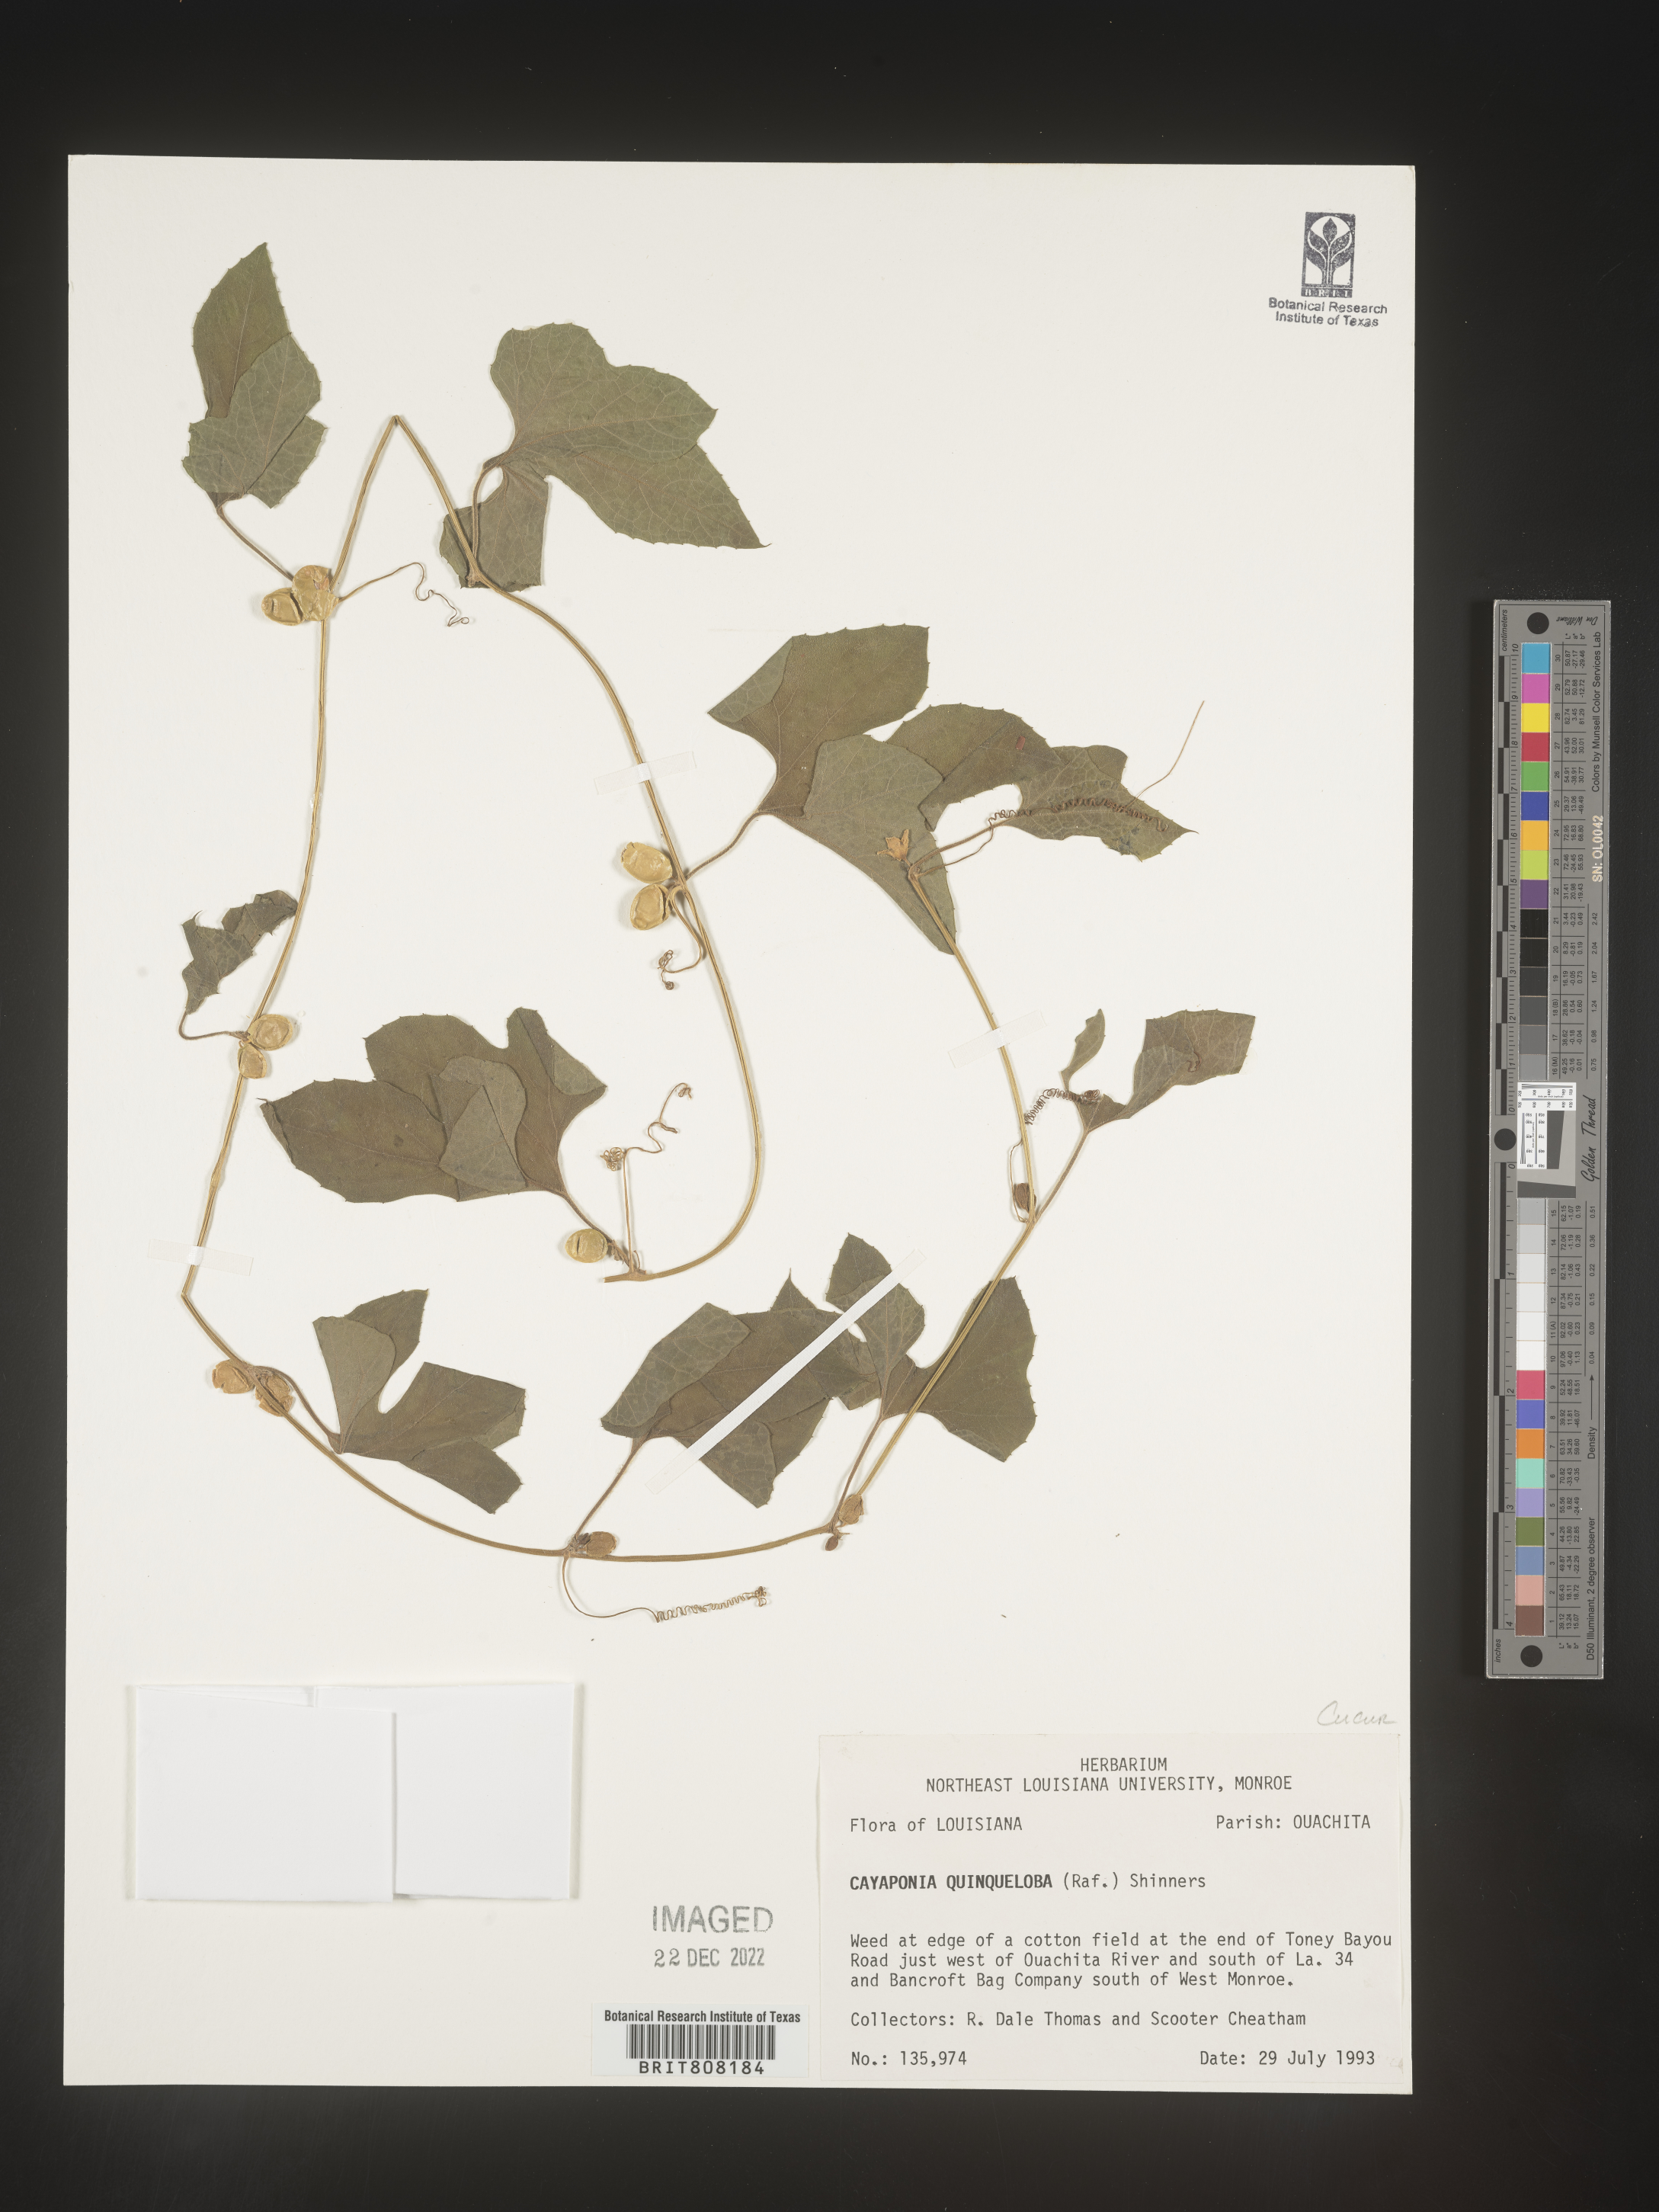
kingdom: Plantae
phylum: Tracheophyta
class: Magnoliopsida
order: Cucurbitales
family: Cucurbitaceae
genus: Cayaponia
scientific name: Cayaponia
